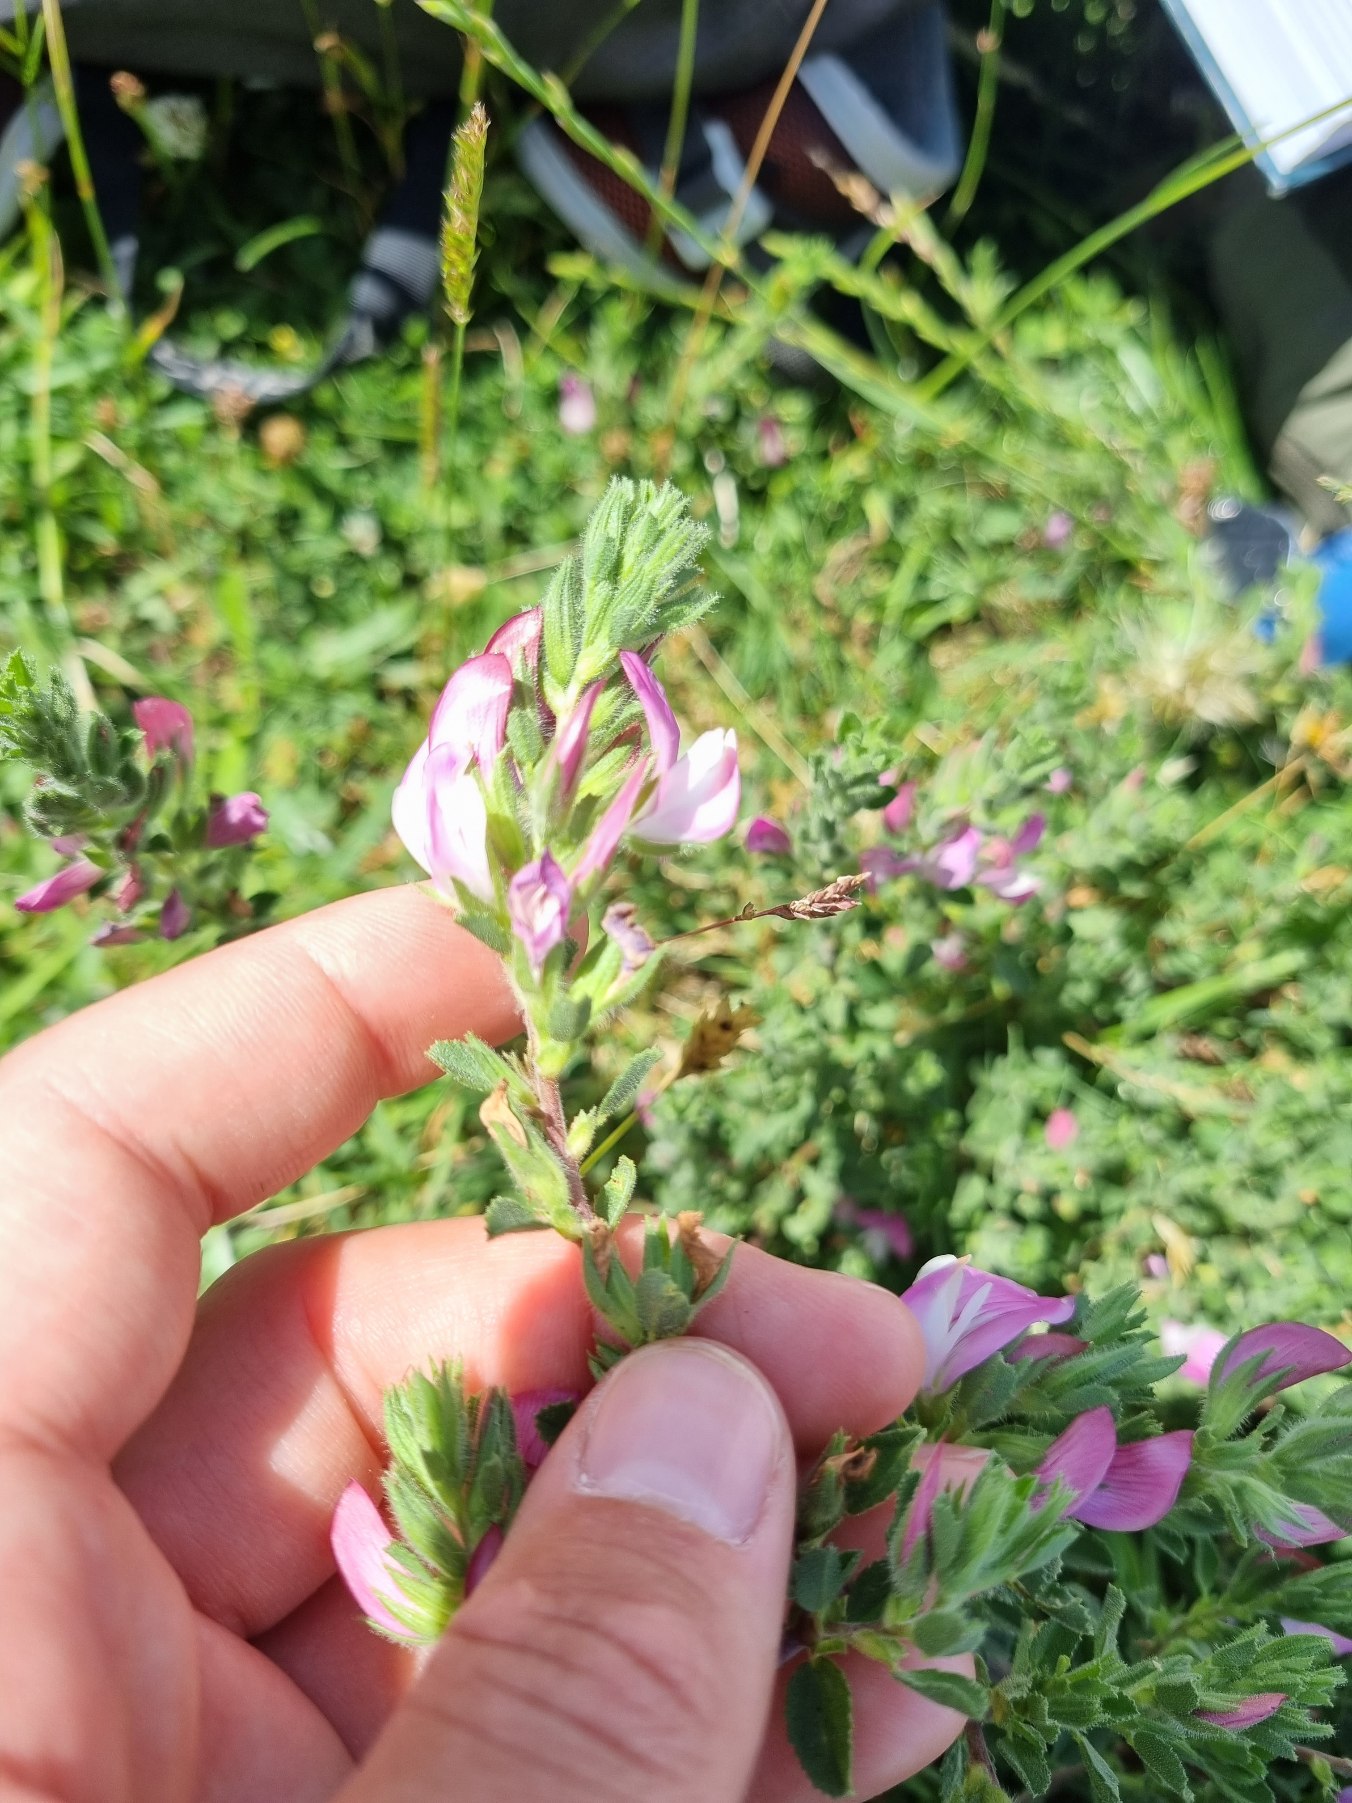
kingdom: Plantae
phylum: Tracheophyta
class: Magnoliopsida
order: Fabales
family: Fabaceae
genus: Ononis
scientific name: Ononis spinosa
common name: Mark-krageklo
